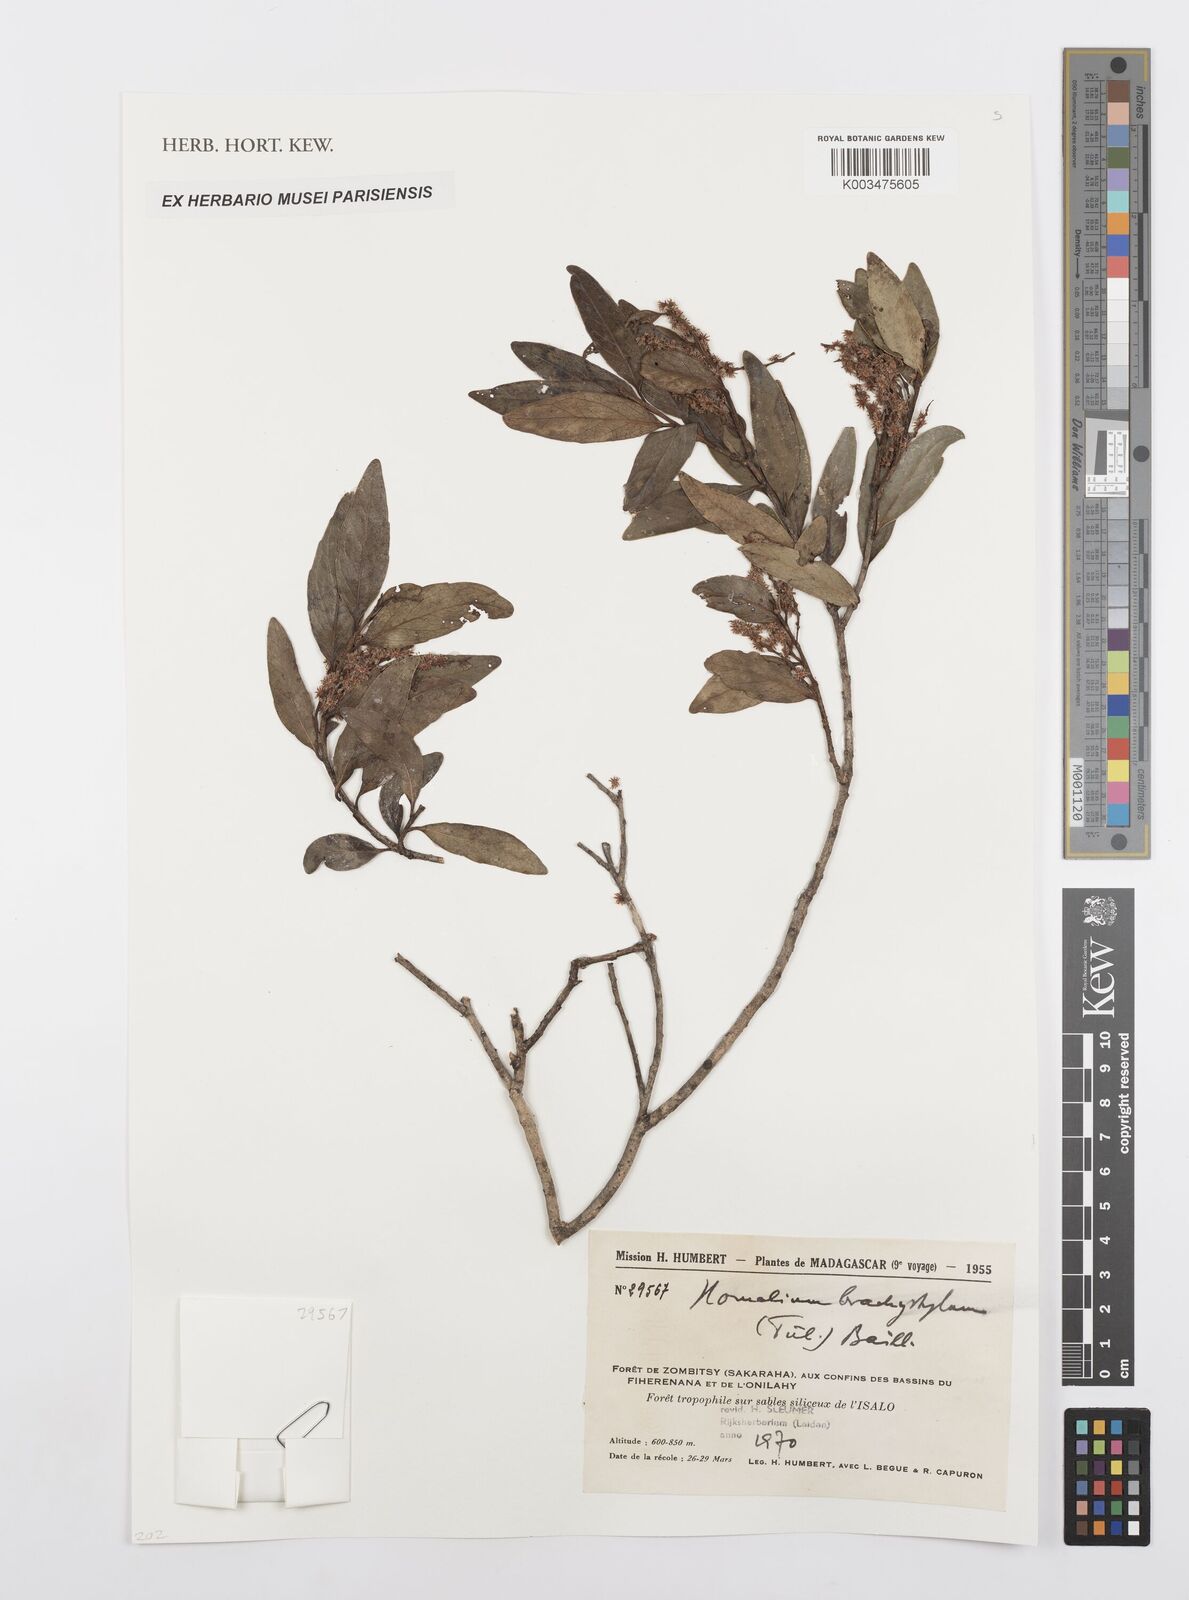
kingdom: Plantae
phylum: Tracheophyta
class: Magnoliopsida
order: Malpighiales
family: Salicaceae
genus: Homalium
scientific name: Homalium brachystylis
